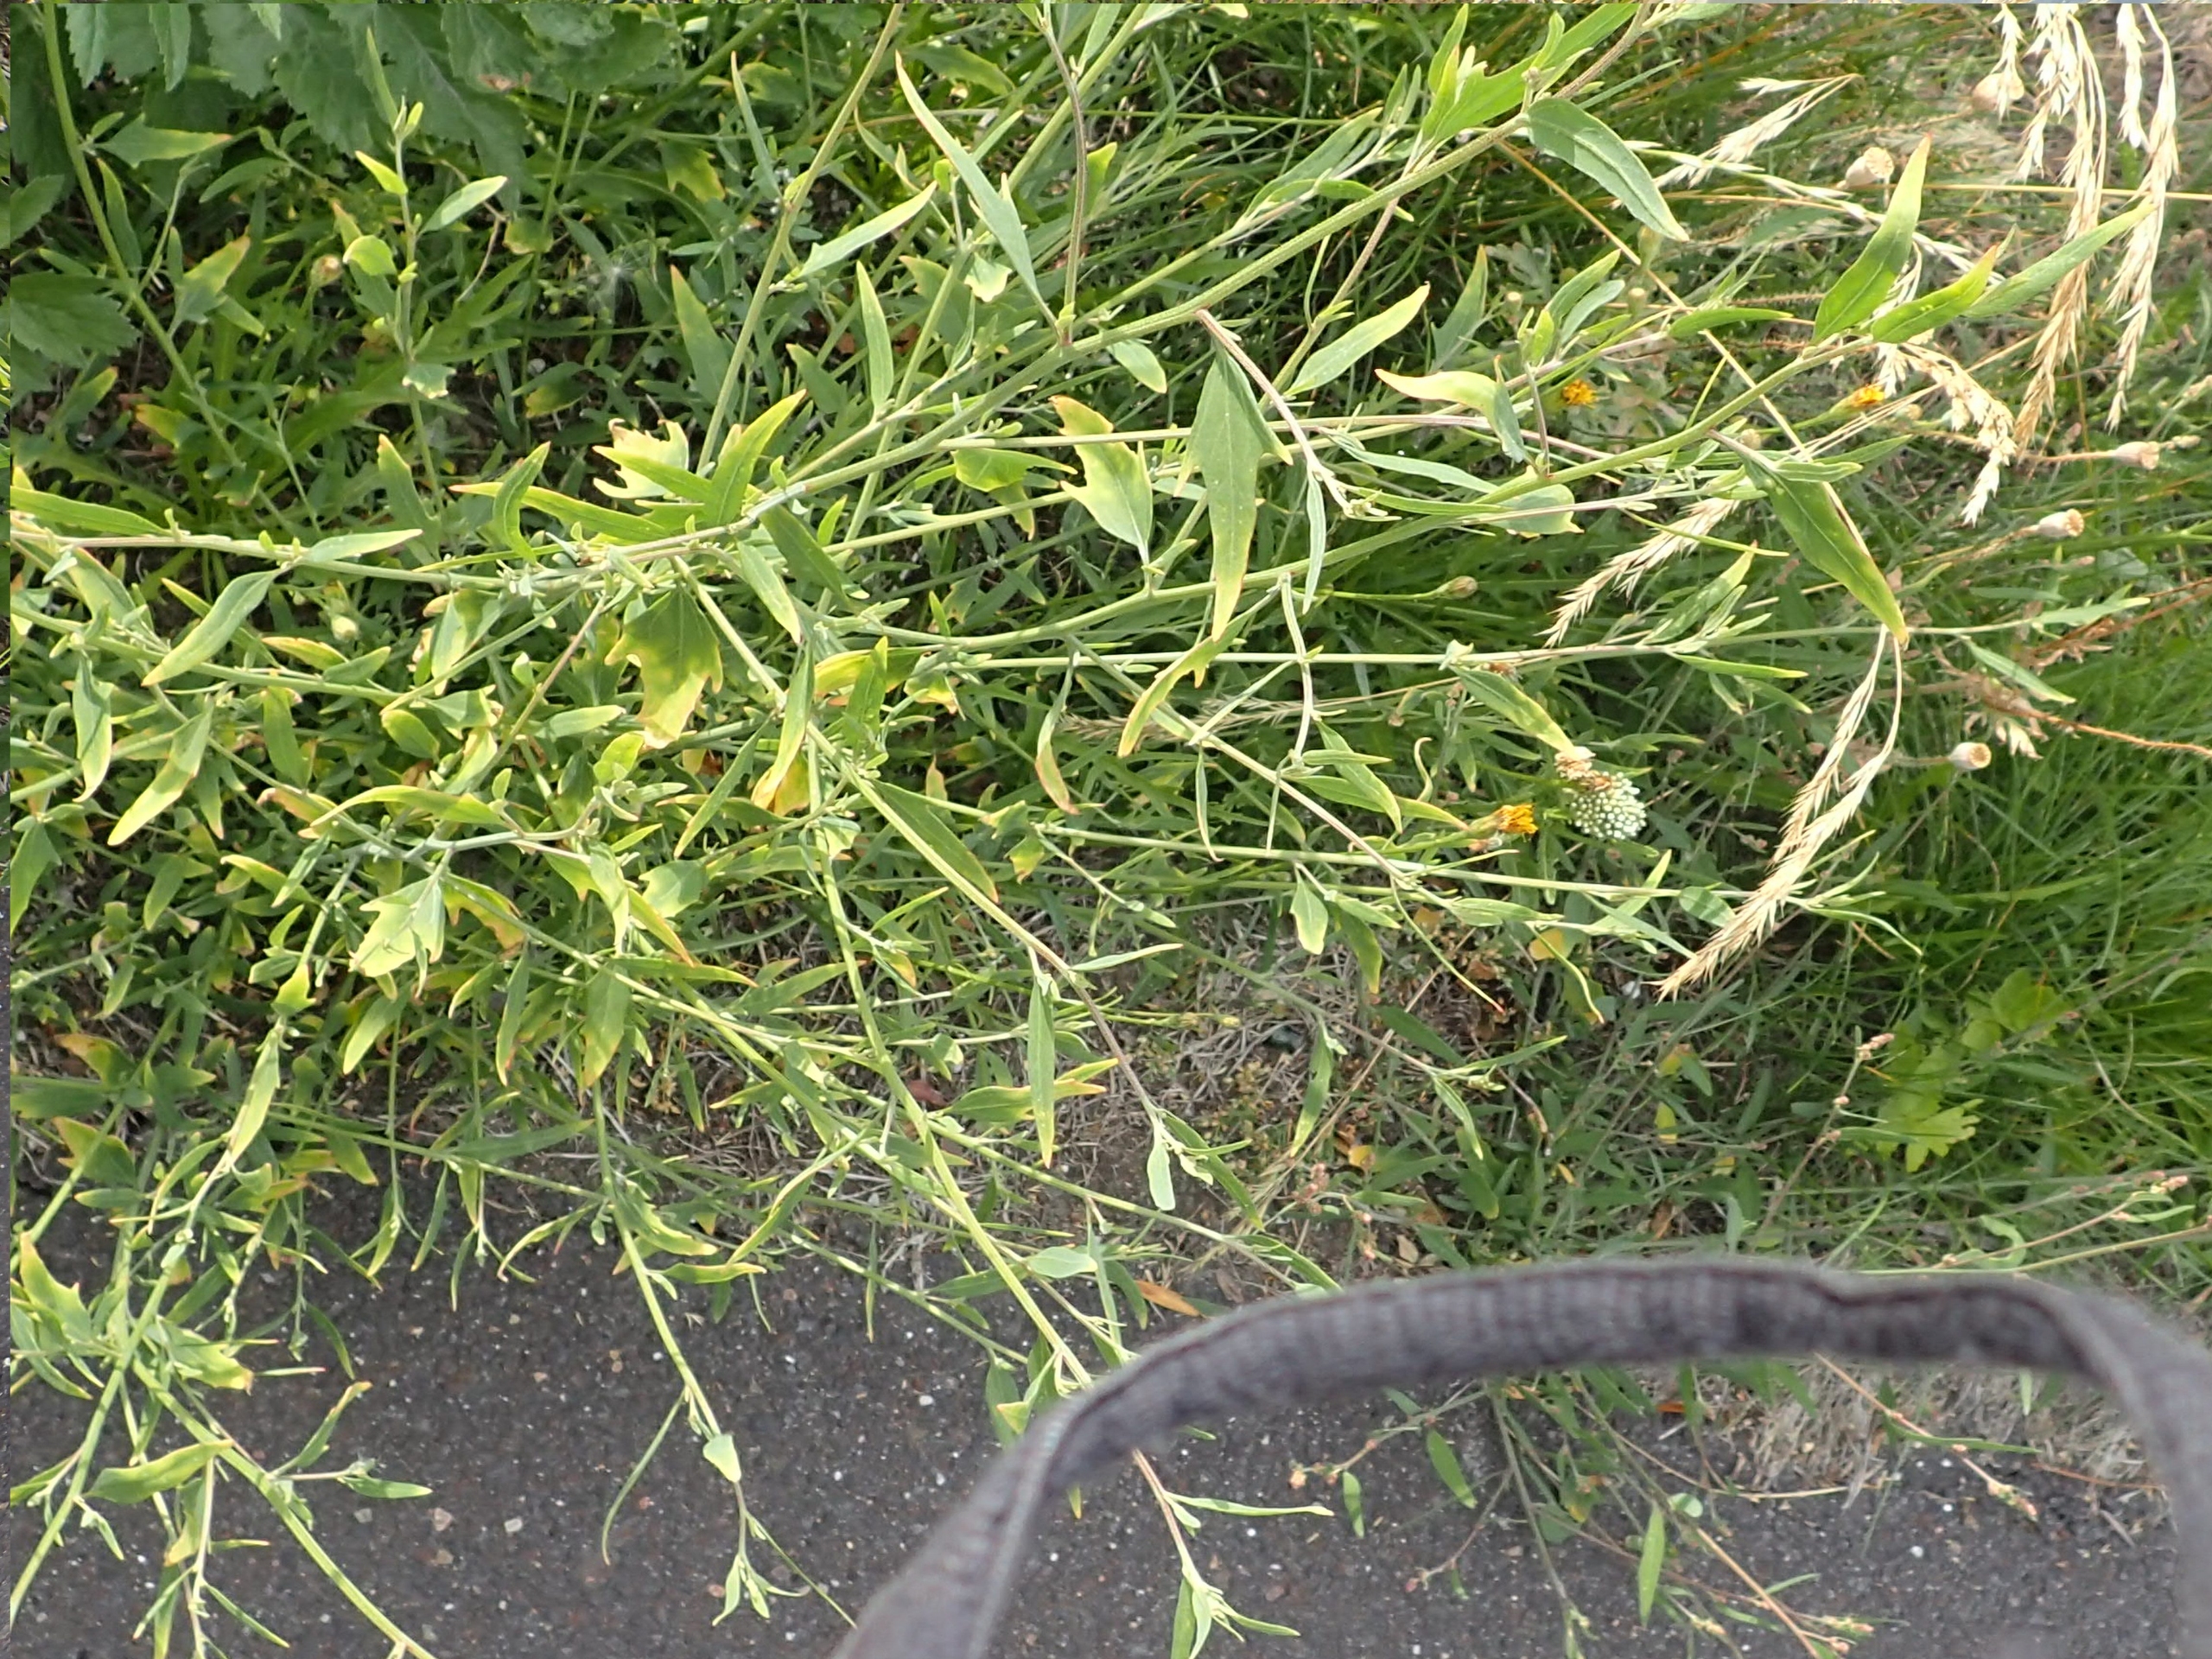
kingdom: Plantae
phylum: Tracheophyta
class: Magnoliopsida
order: Caryophyllales
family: Amaranthaceae
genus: Atriplex
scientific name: Atriplex patula
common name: Svine-mælde
